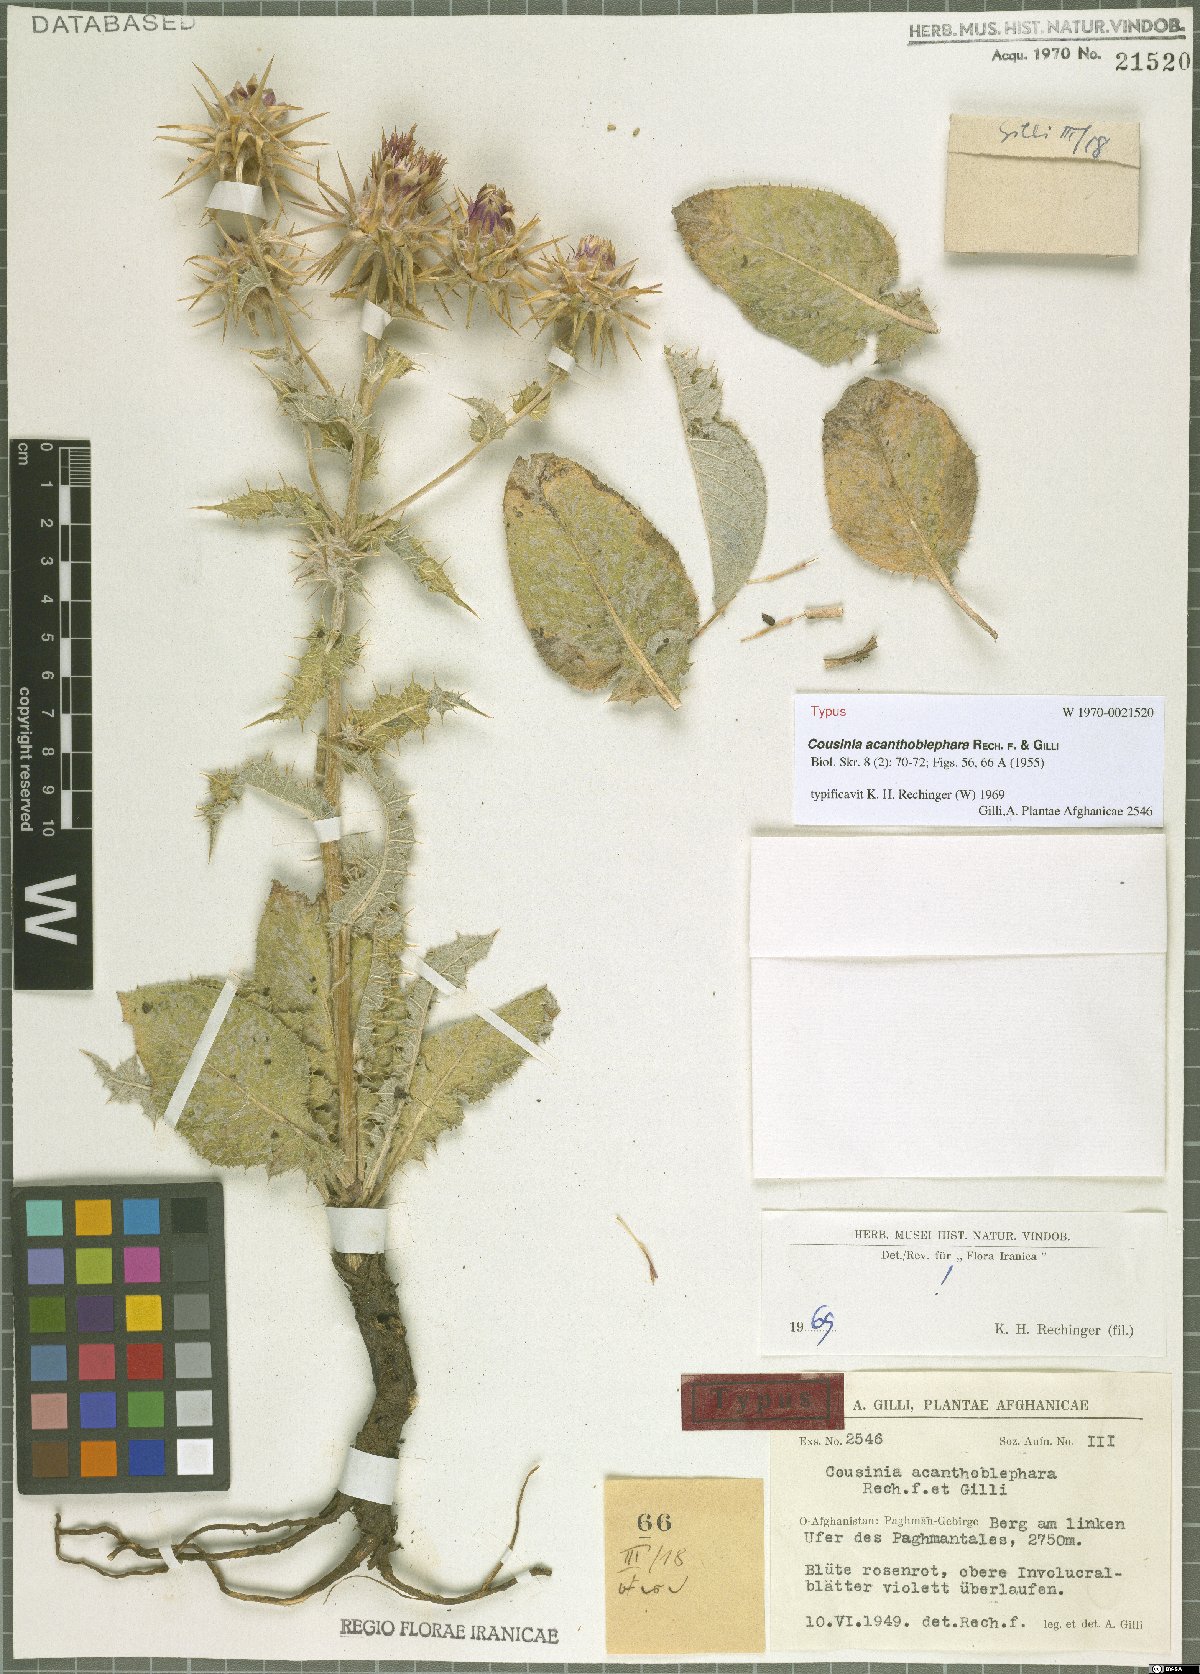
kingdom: Plantae
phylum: Tracheophyta
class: Magnoliopsida
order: Asterales
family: Asteraceae
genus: Cousinia
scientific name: Cousinia acanthoblephara
